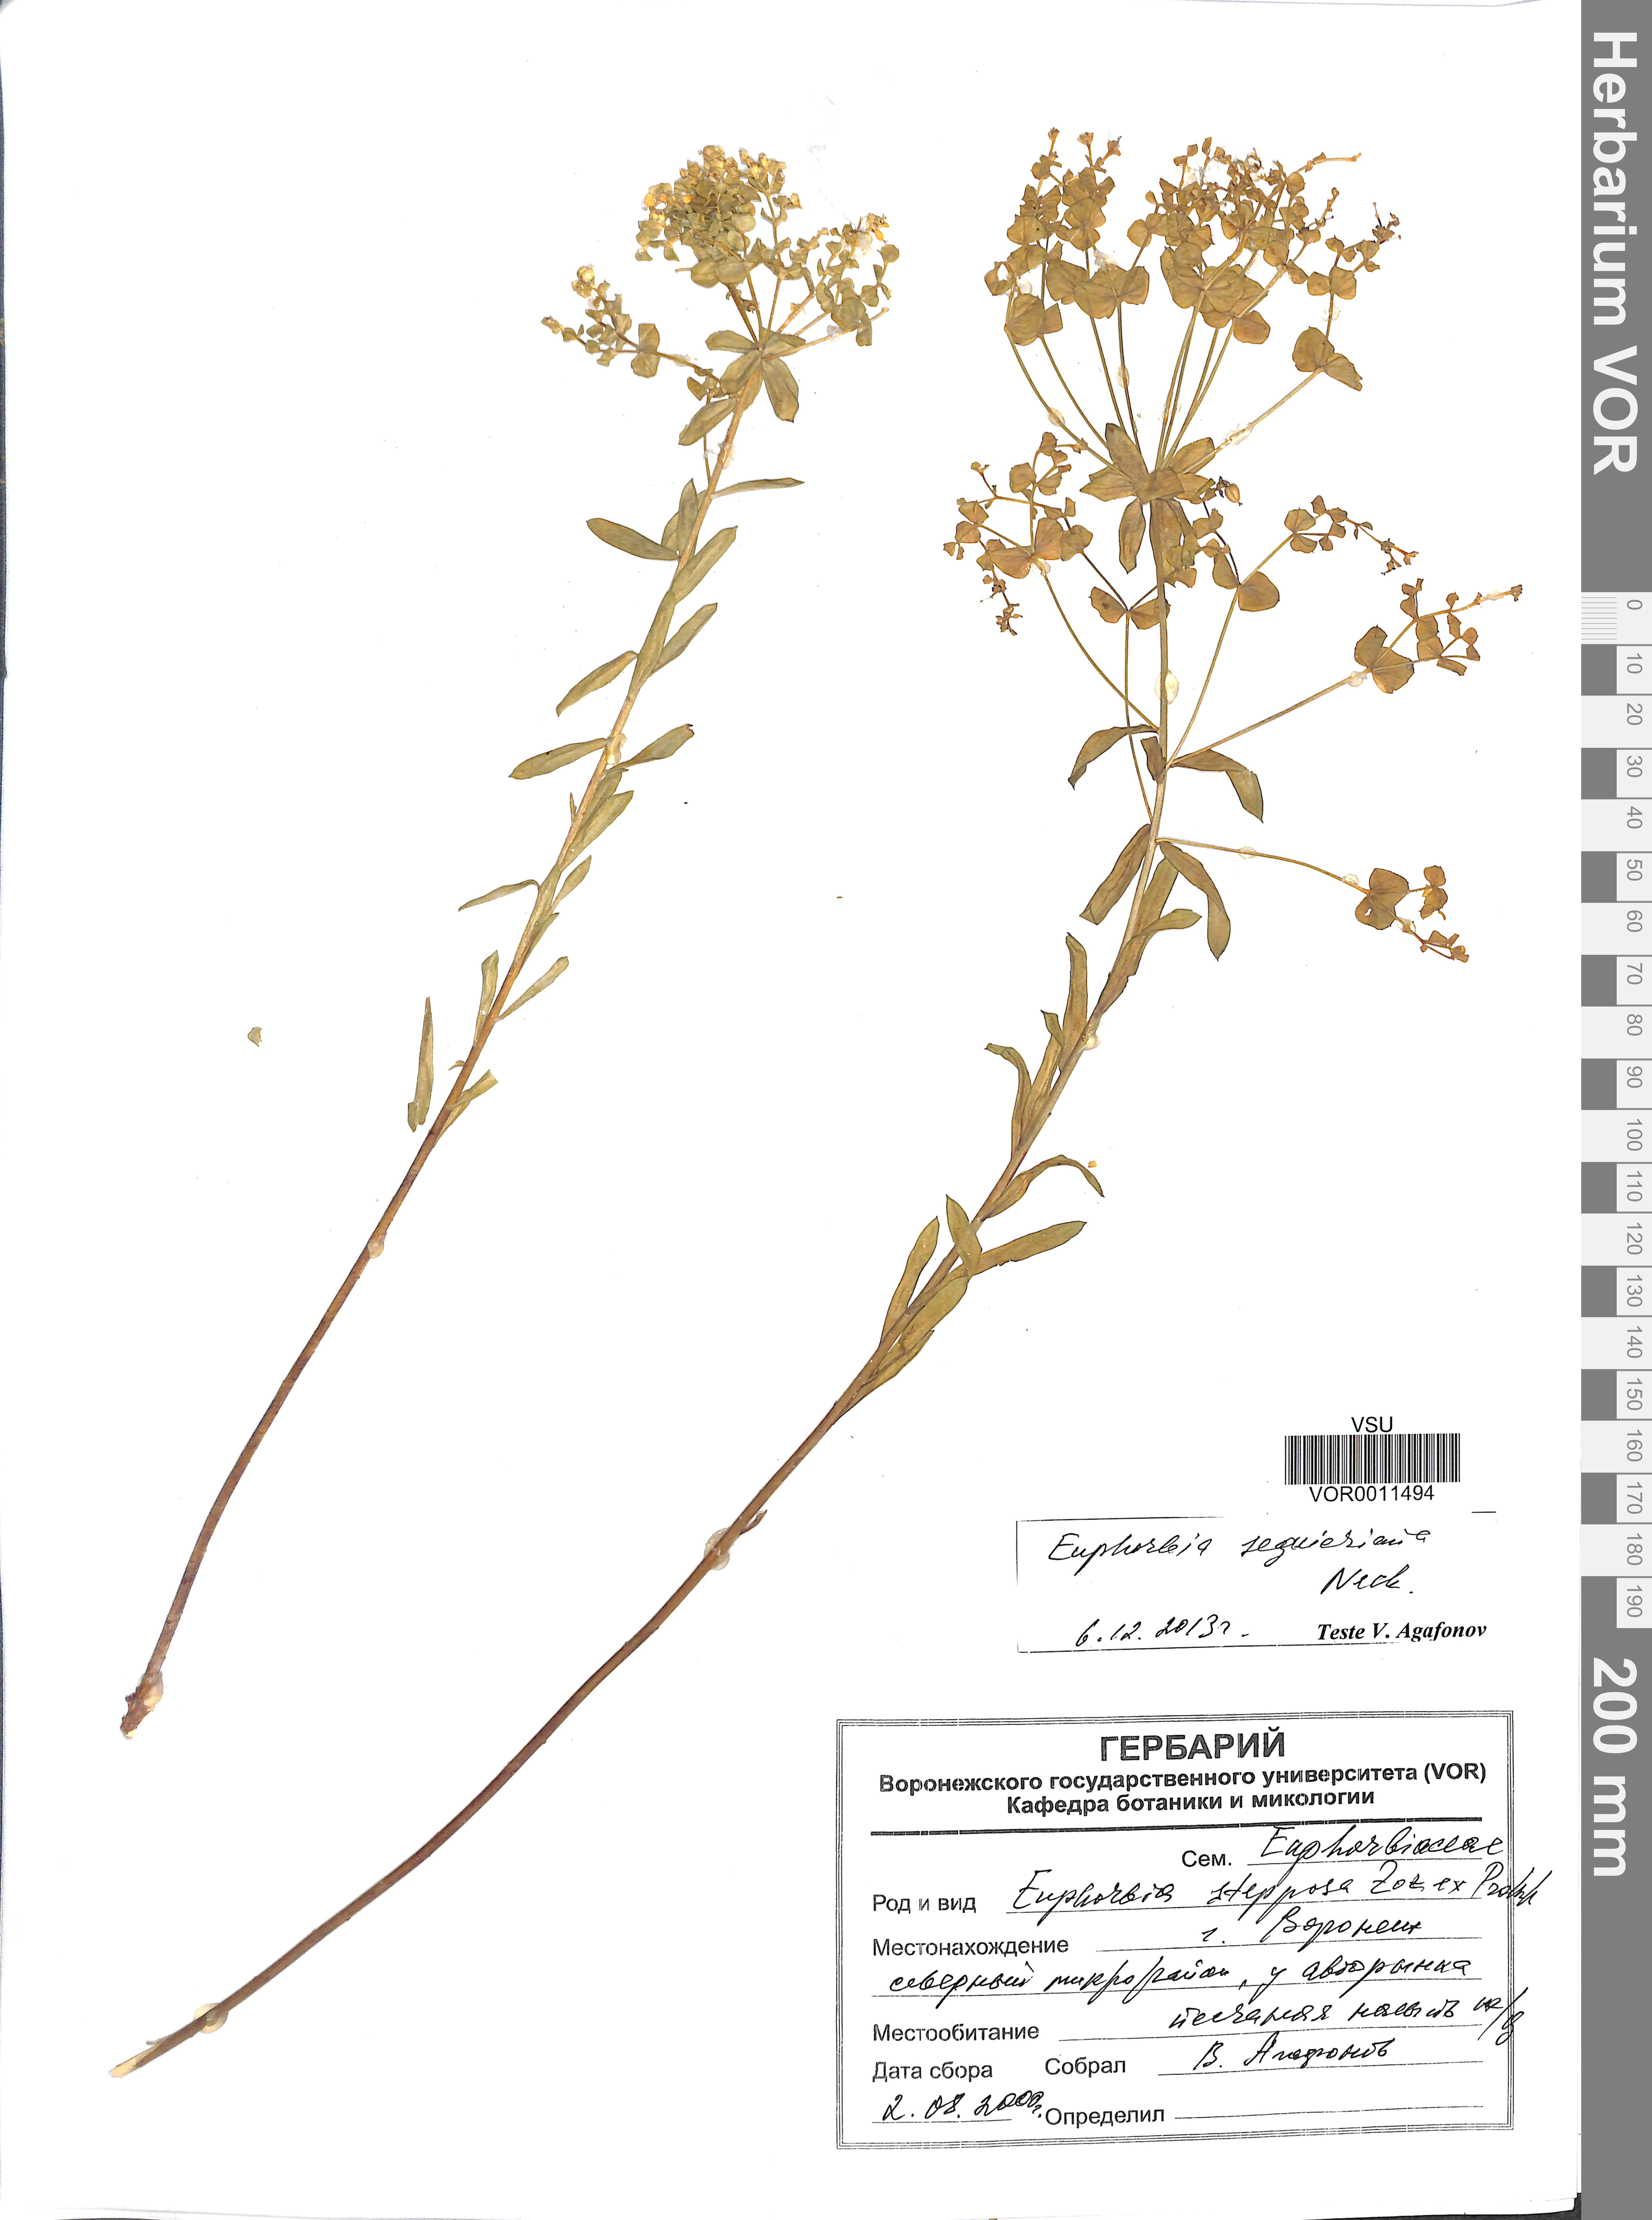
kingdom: Plantae
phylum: Tracheophyta
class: Magnoliopsida
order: Malpighiales
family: Euphorbiaceae
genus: Euphorbia
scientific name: Euphorbia seguieriana
